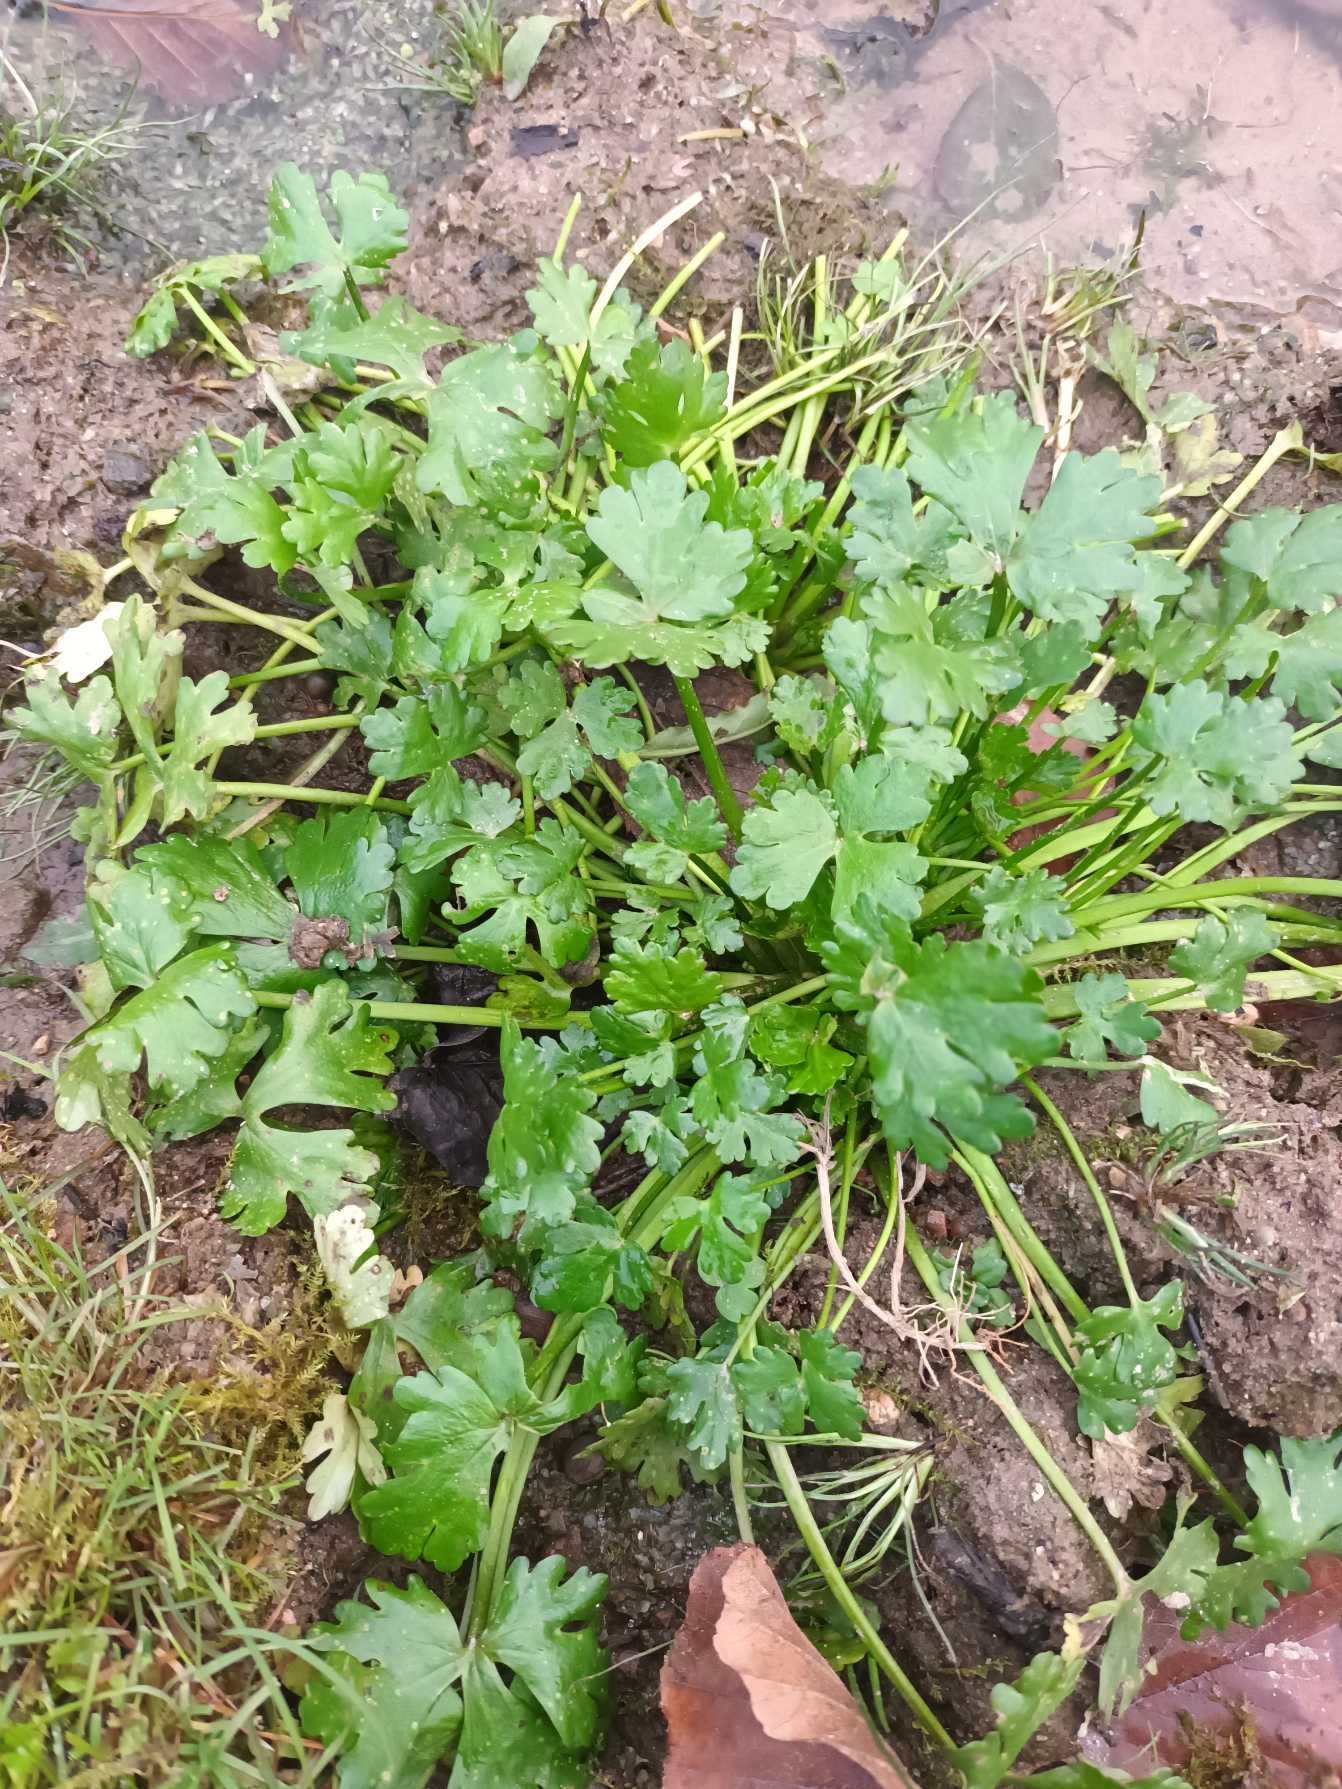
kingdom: Plantae
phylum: Tracheophyta
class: Magnoliopsida
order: Ranunculales
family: Ranunculaceae
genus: Ranunculus
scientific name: Ranunculus sceleratus
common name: Tigger-ranunkel
